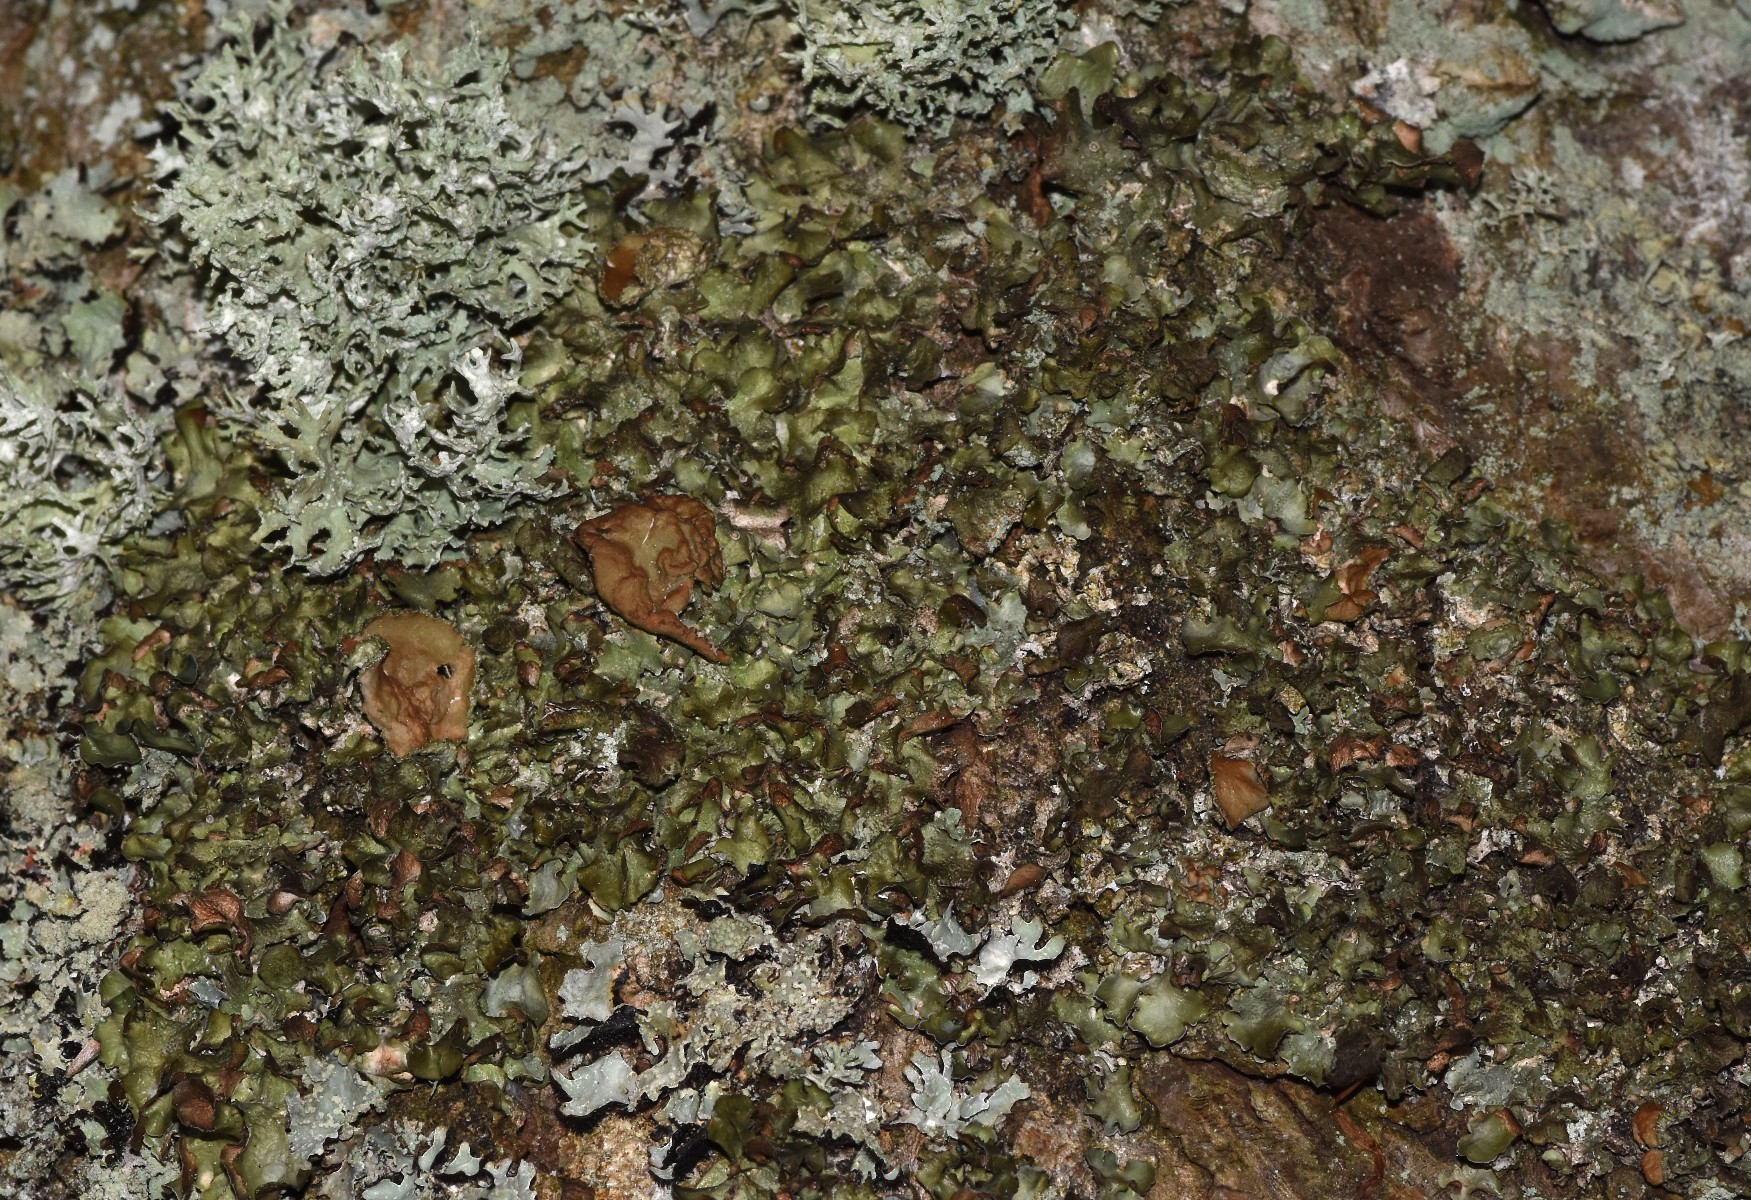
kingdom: Fungi
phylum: Ascomycota
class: Lecanoromycetes
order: Lecanorales
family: Parmeliaceae
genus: Pleurosticta
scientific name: Pleurosticta acetabulum
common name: stor skållav
